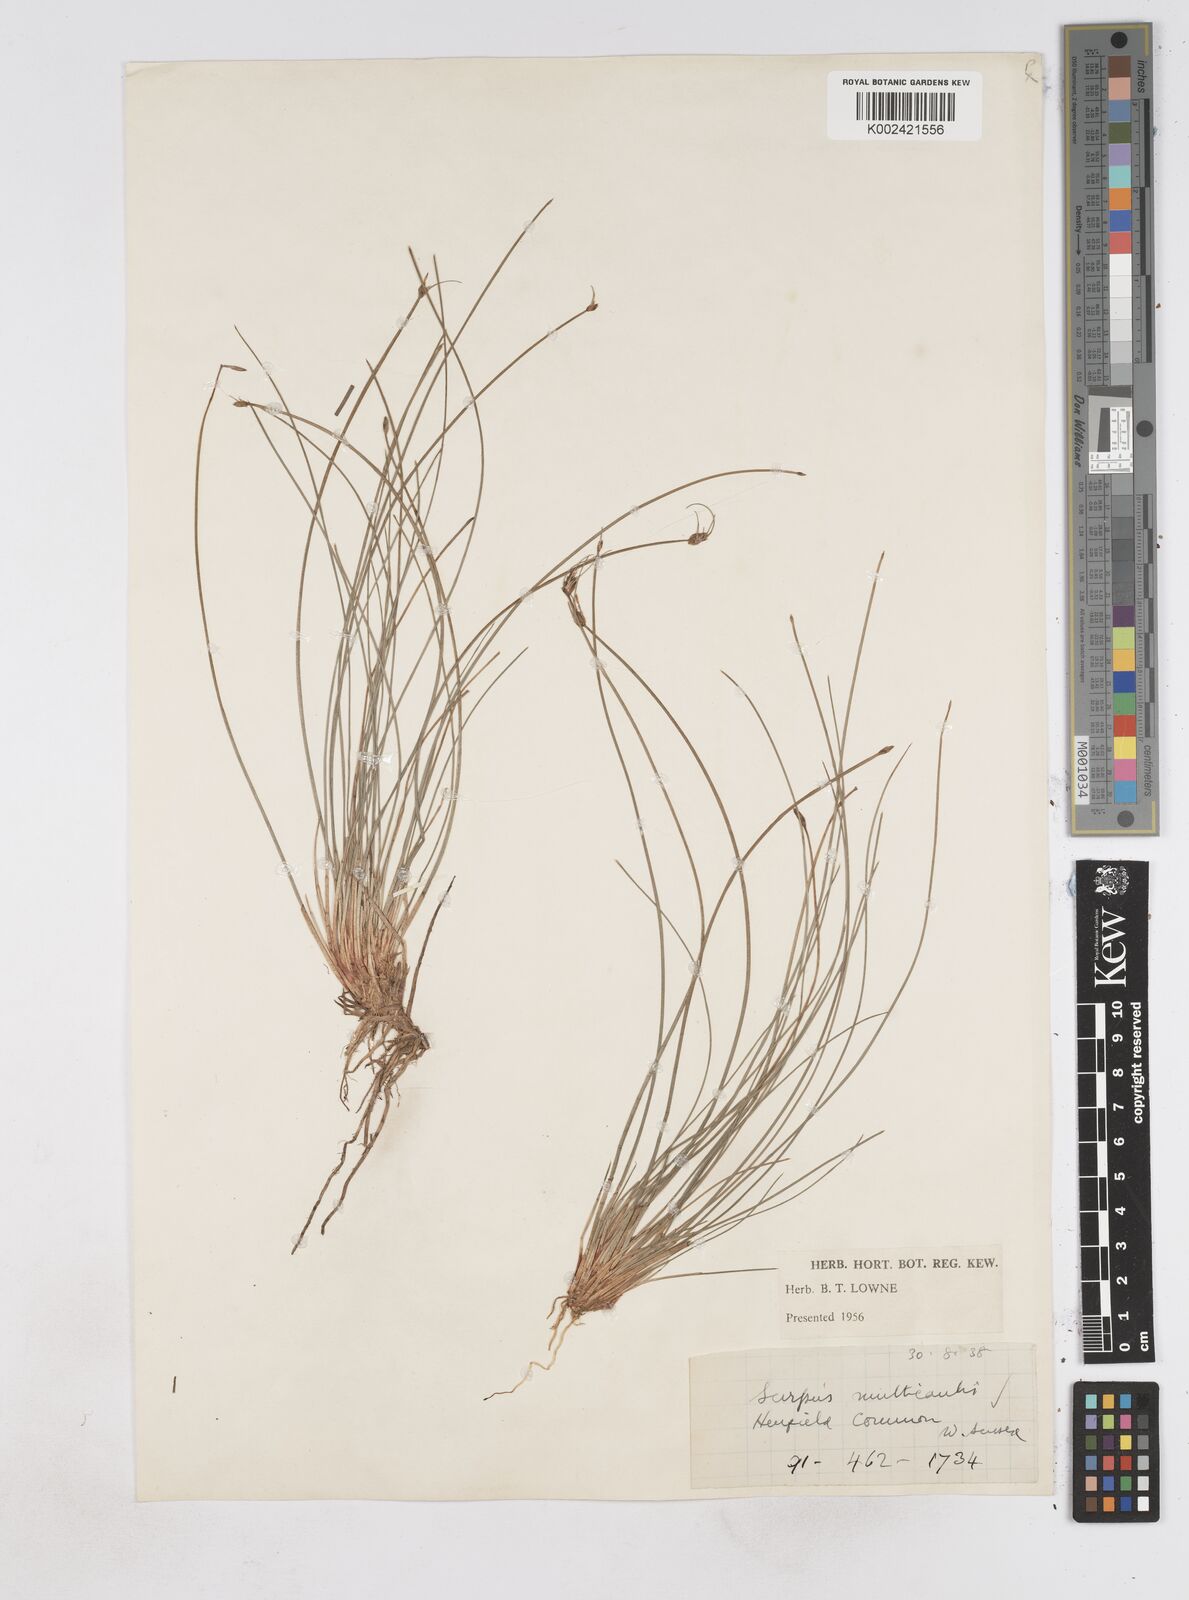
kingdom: Plantae
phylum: Tracheophyta
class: Liliopsida
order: Poales
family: Cyperaceae
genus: Eleocharis
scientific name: Eleocharis multicaulis
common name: Many-stalked spike-rush
